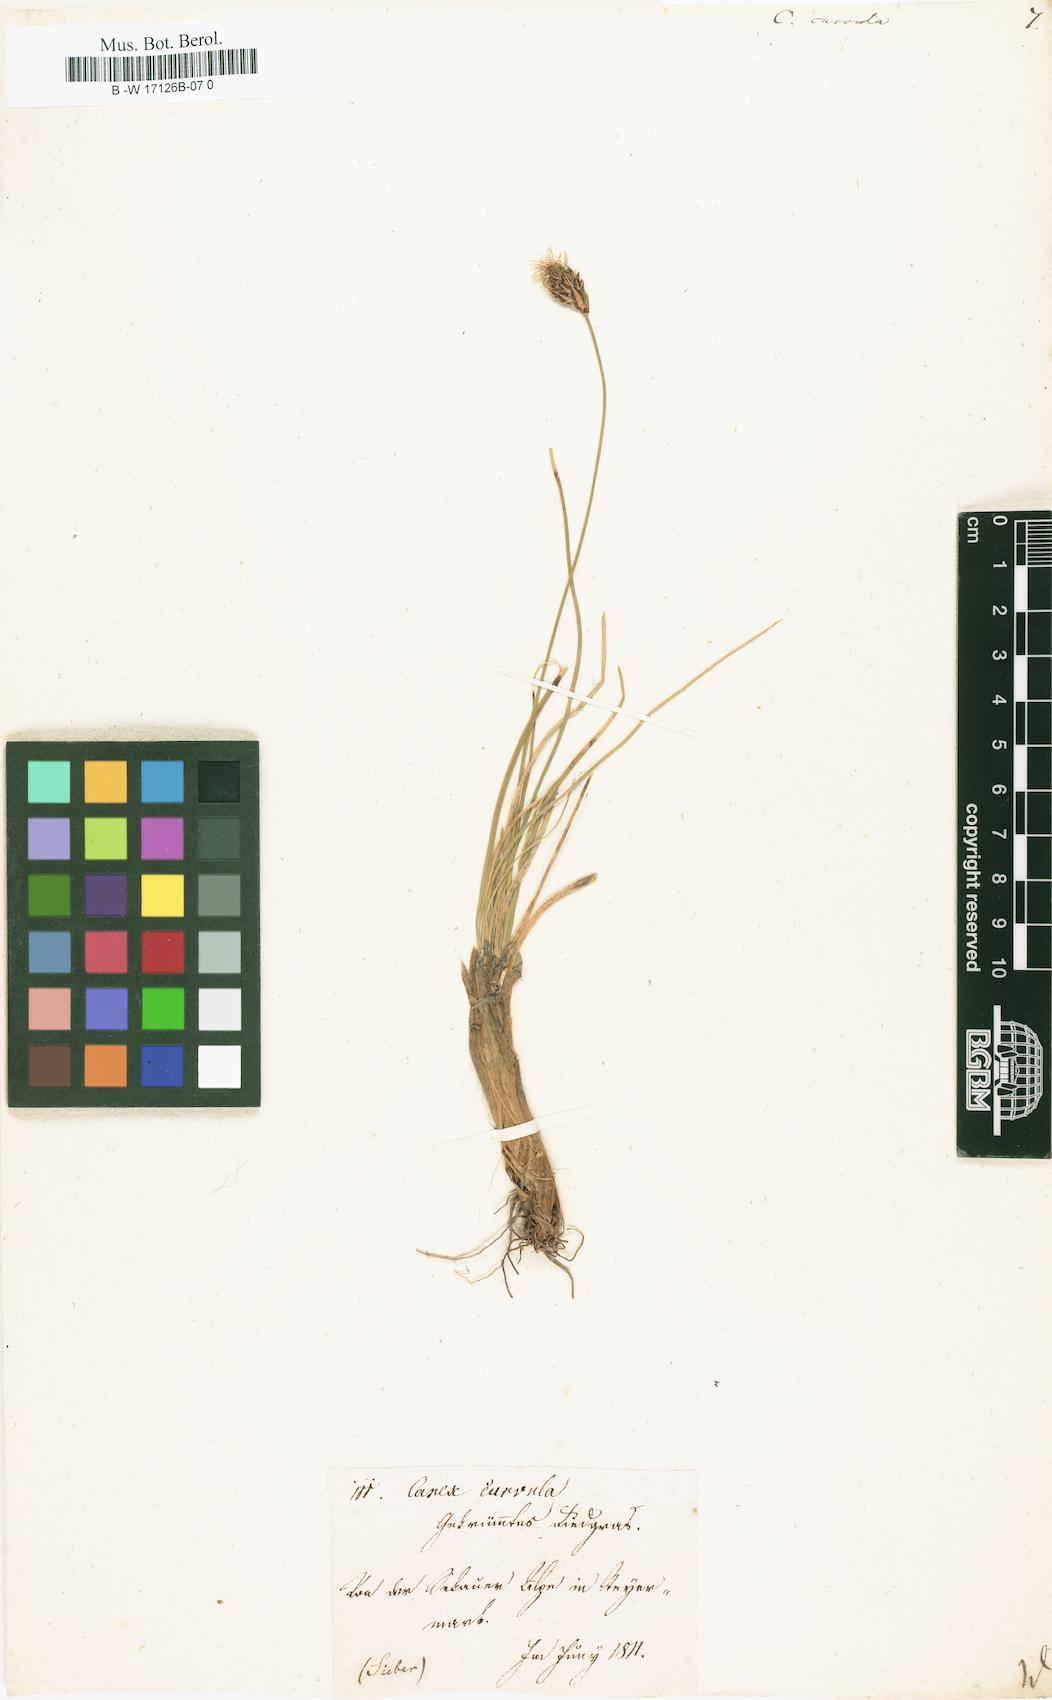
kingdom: Plantae
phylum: Tracheophyta
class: Liliopsida
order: Poales
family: Cyperaceae
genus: Carex
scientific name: Carex curvula
